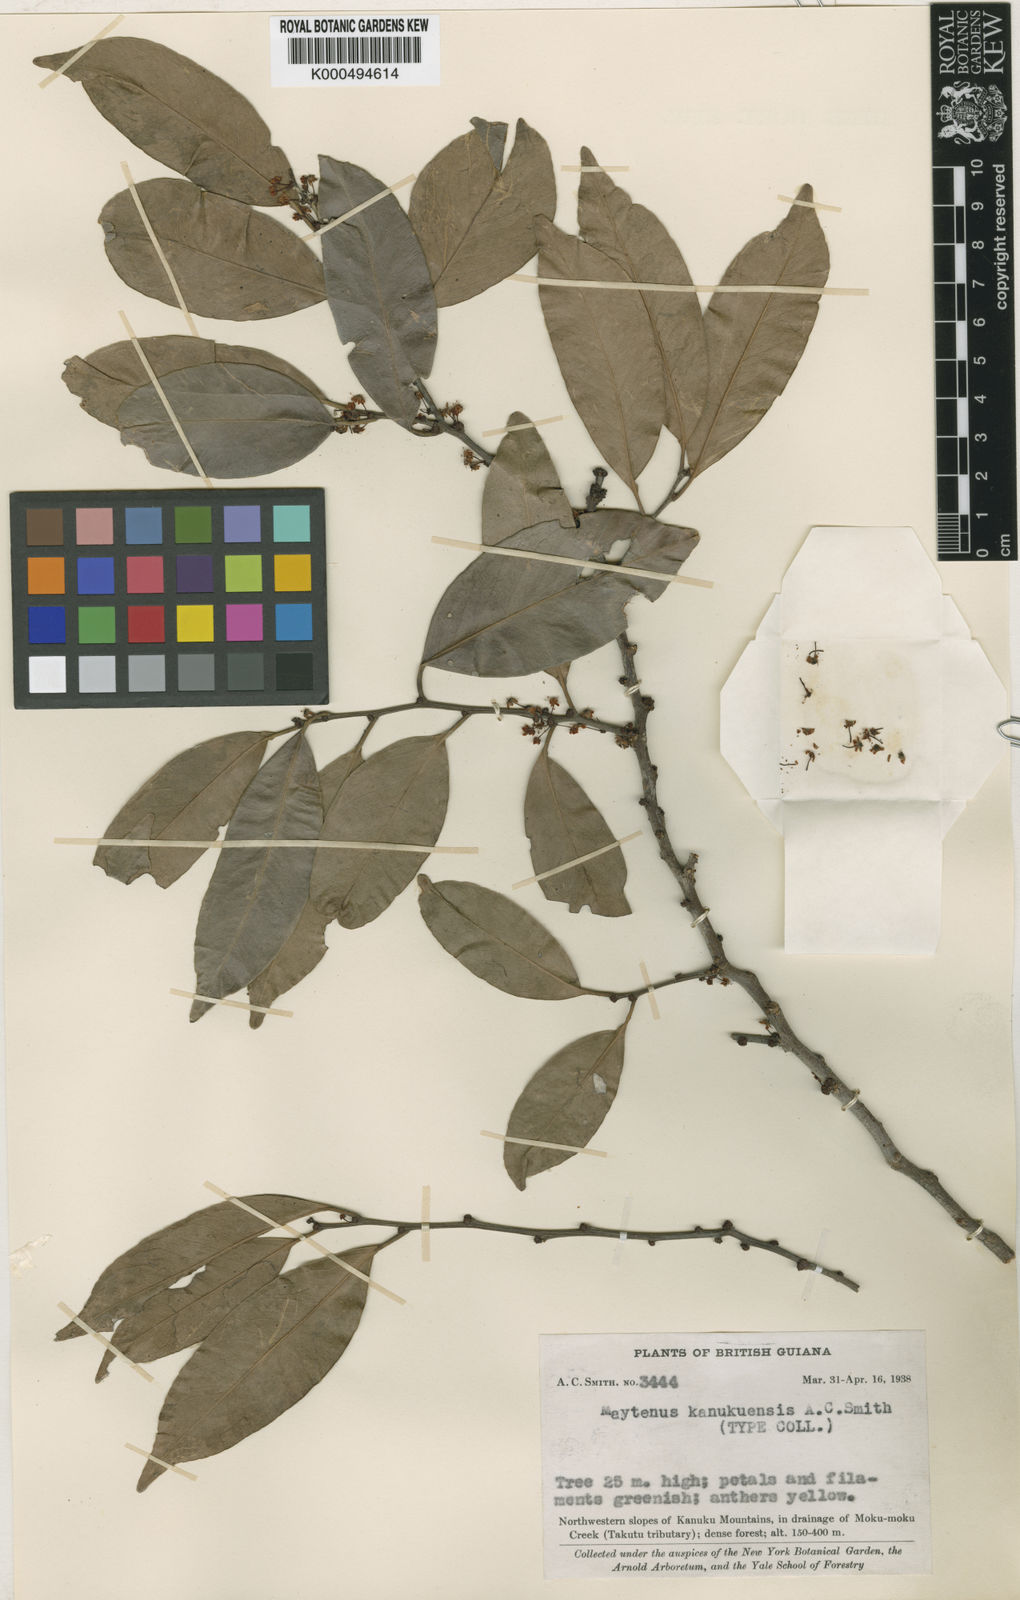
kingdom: Plantae
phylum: Tracheophyta
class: Magnoliopsida
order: Celastrales
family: Celastraceae
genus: Monteverdia
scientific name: Monteverdia kanukuensis
